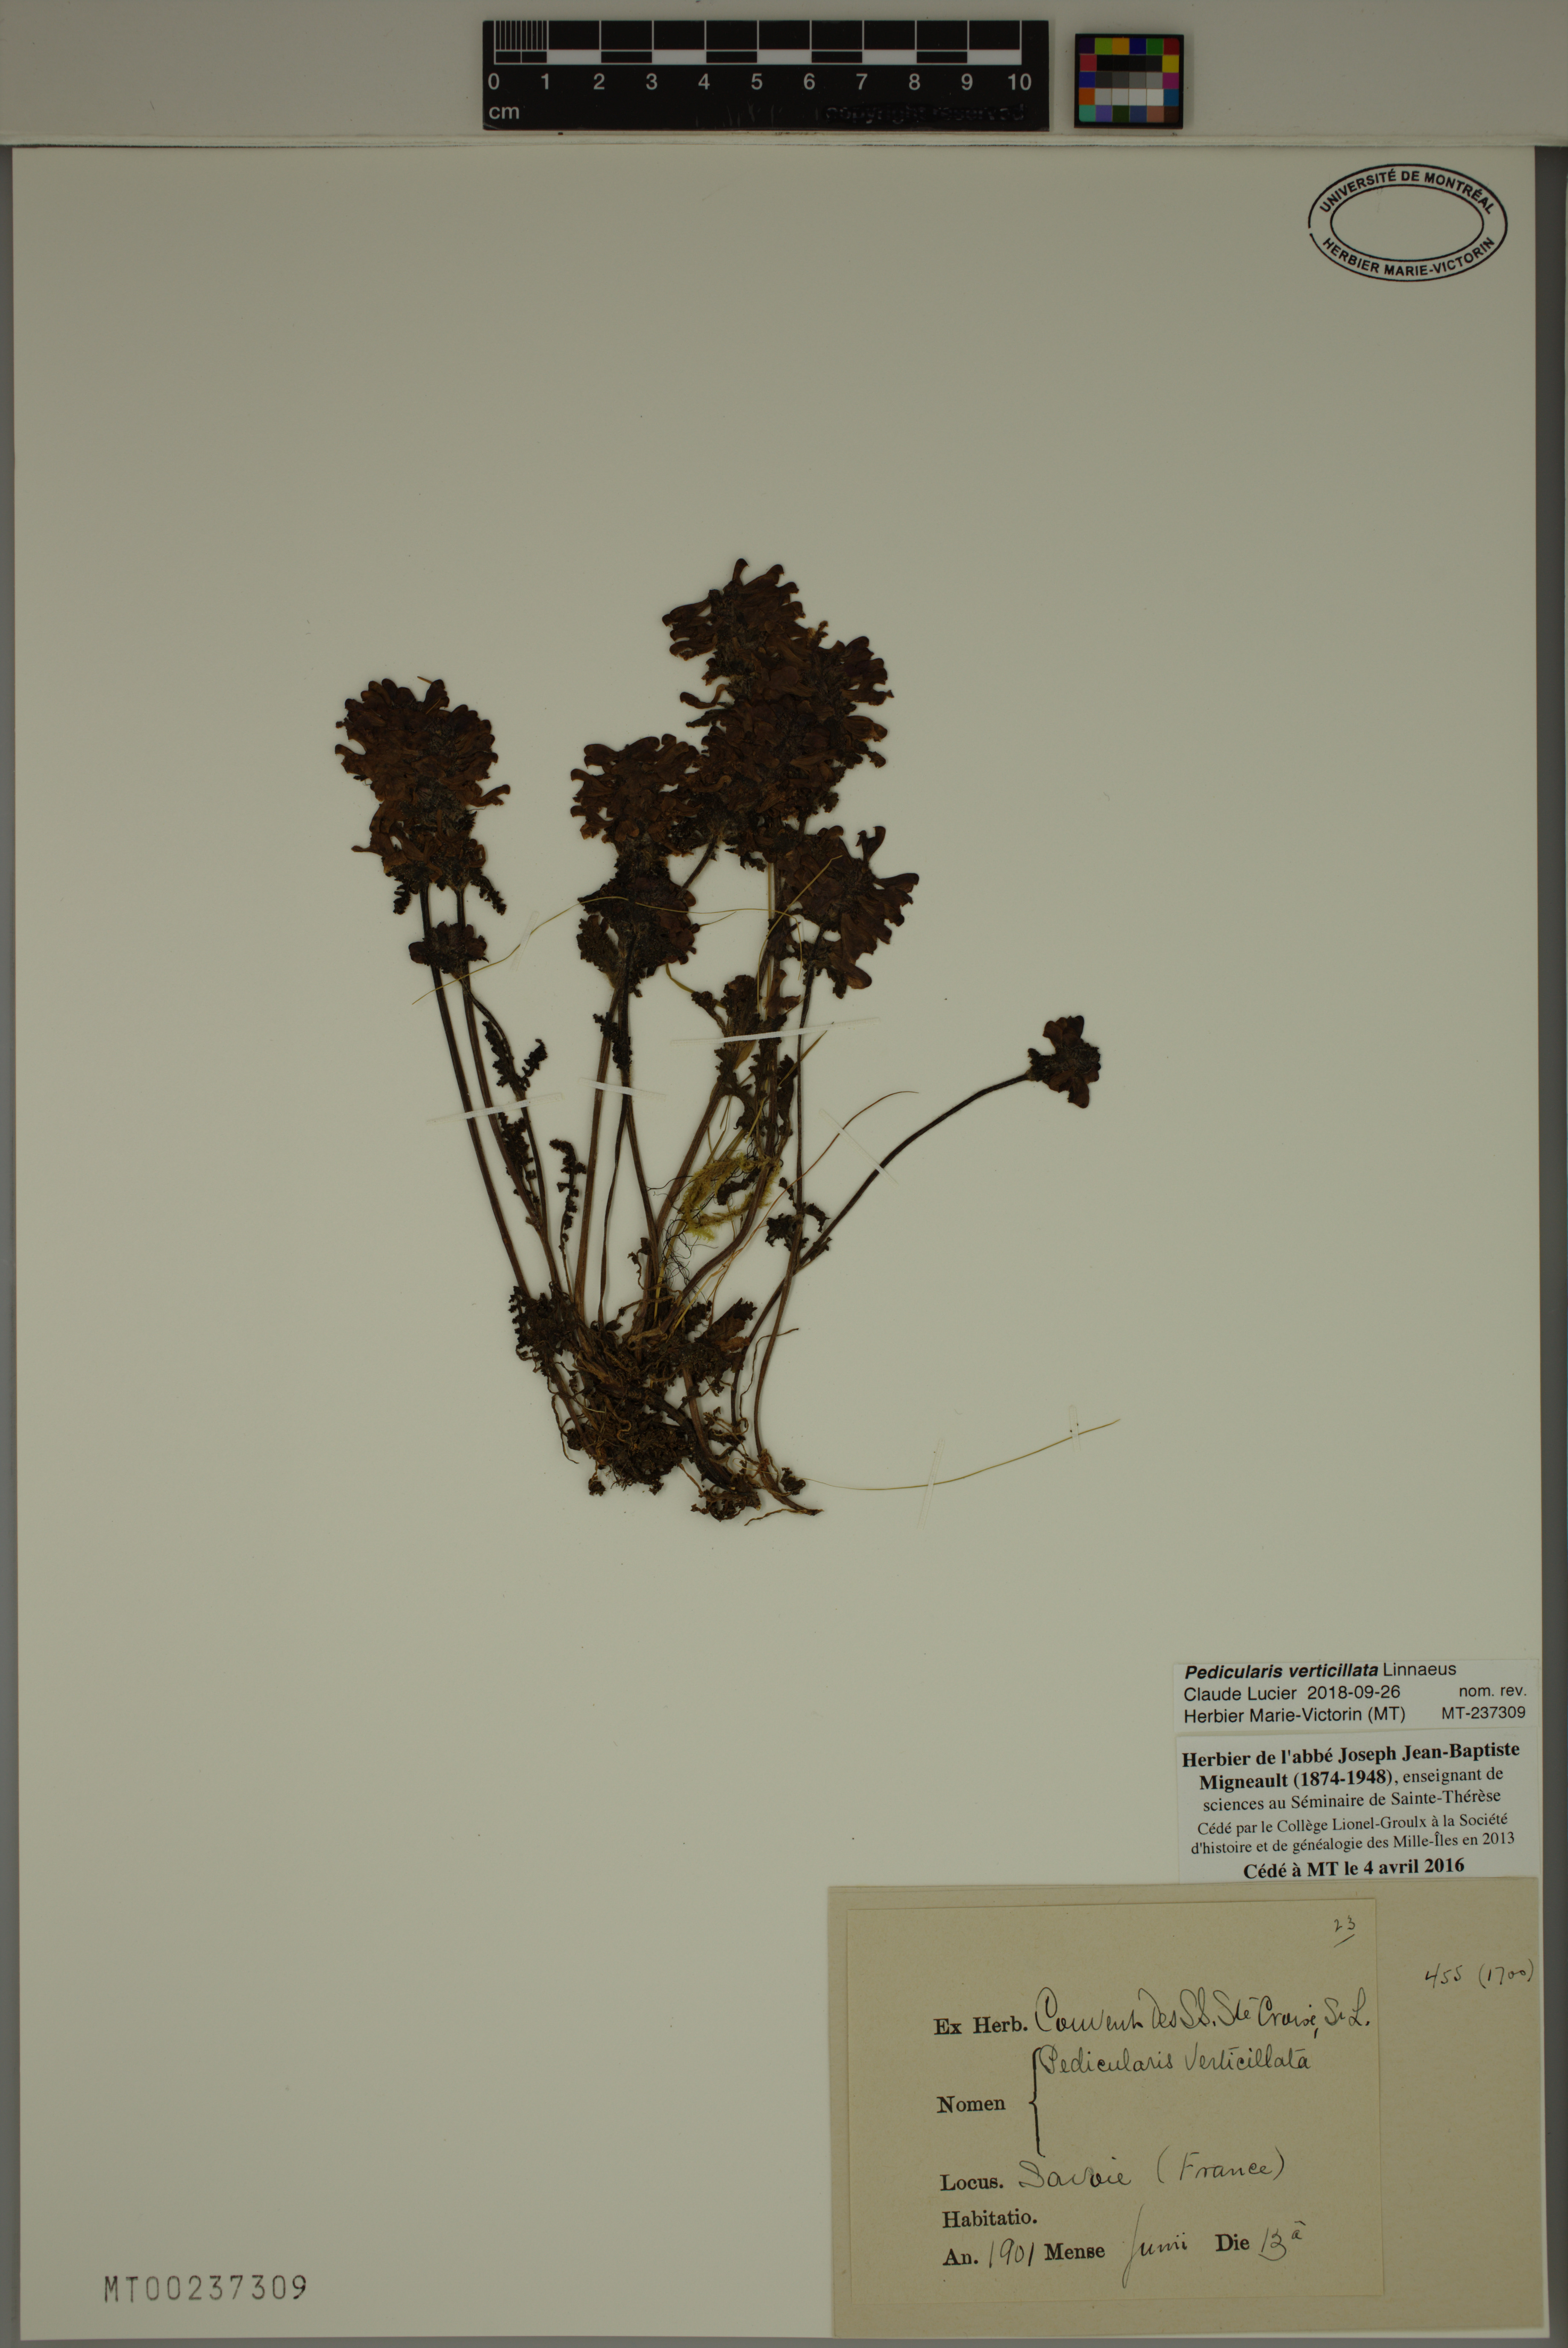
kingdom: Plantae
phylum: Tracheophyta
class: Magnoliopsida
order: Lamiales
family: Orobanchaceae
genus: Pedicularis
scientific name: Pedicularis verticillata
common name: Whorled lousewort
